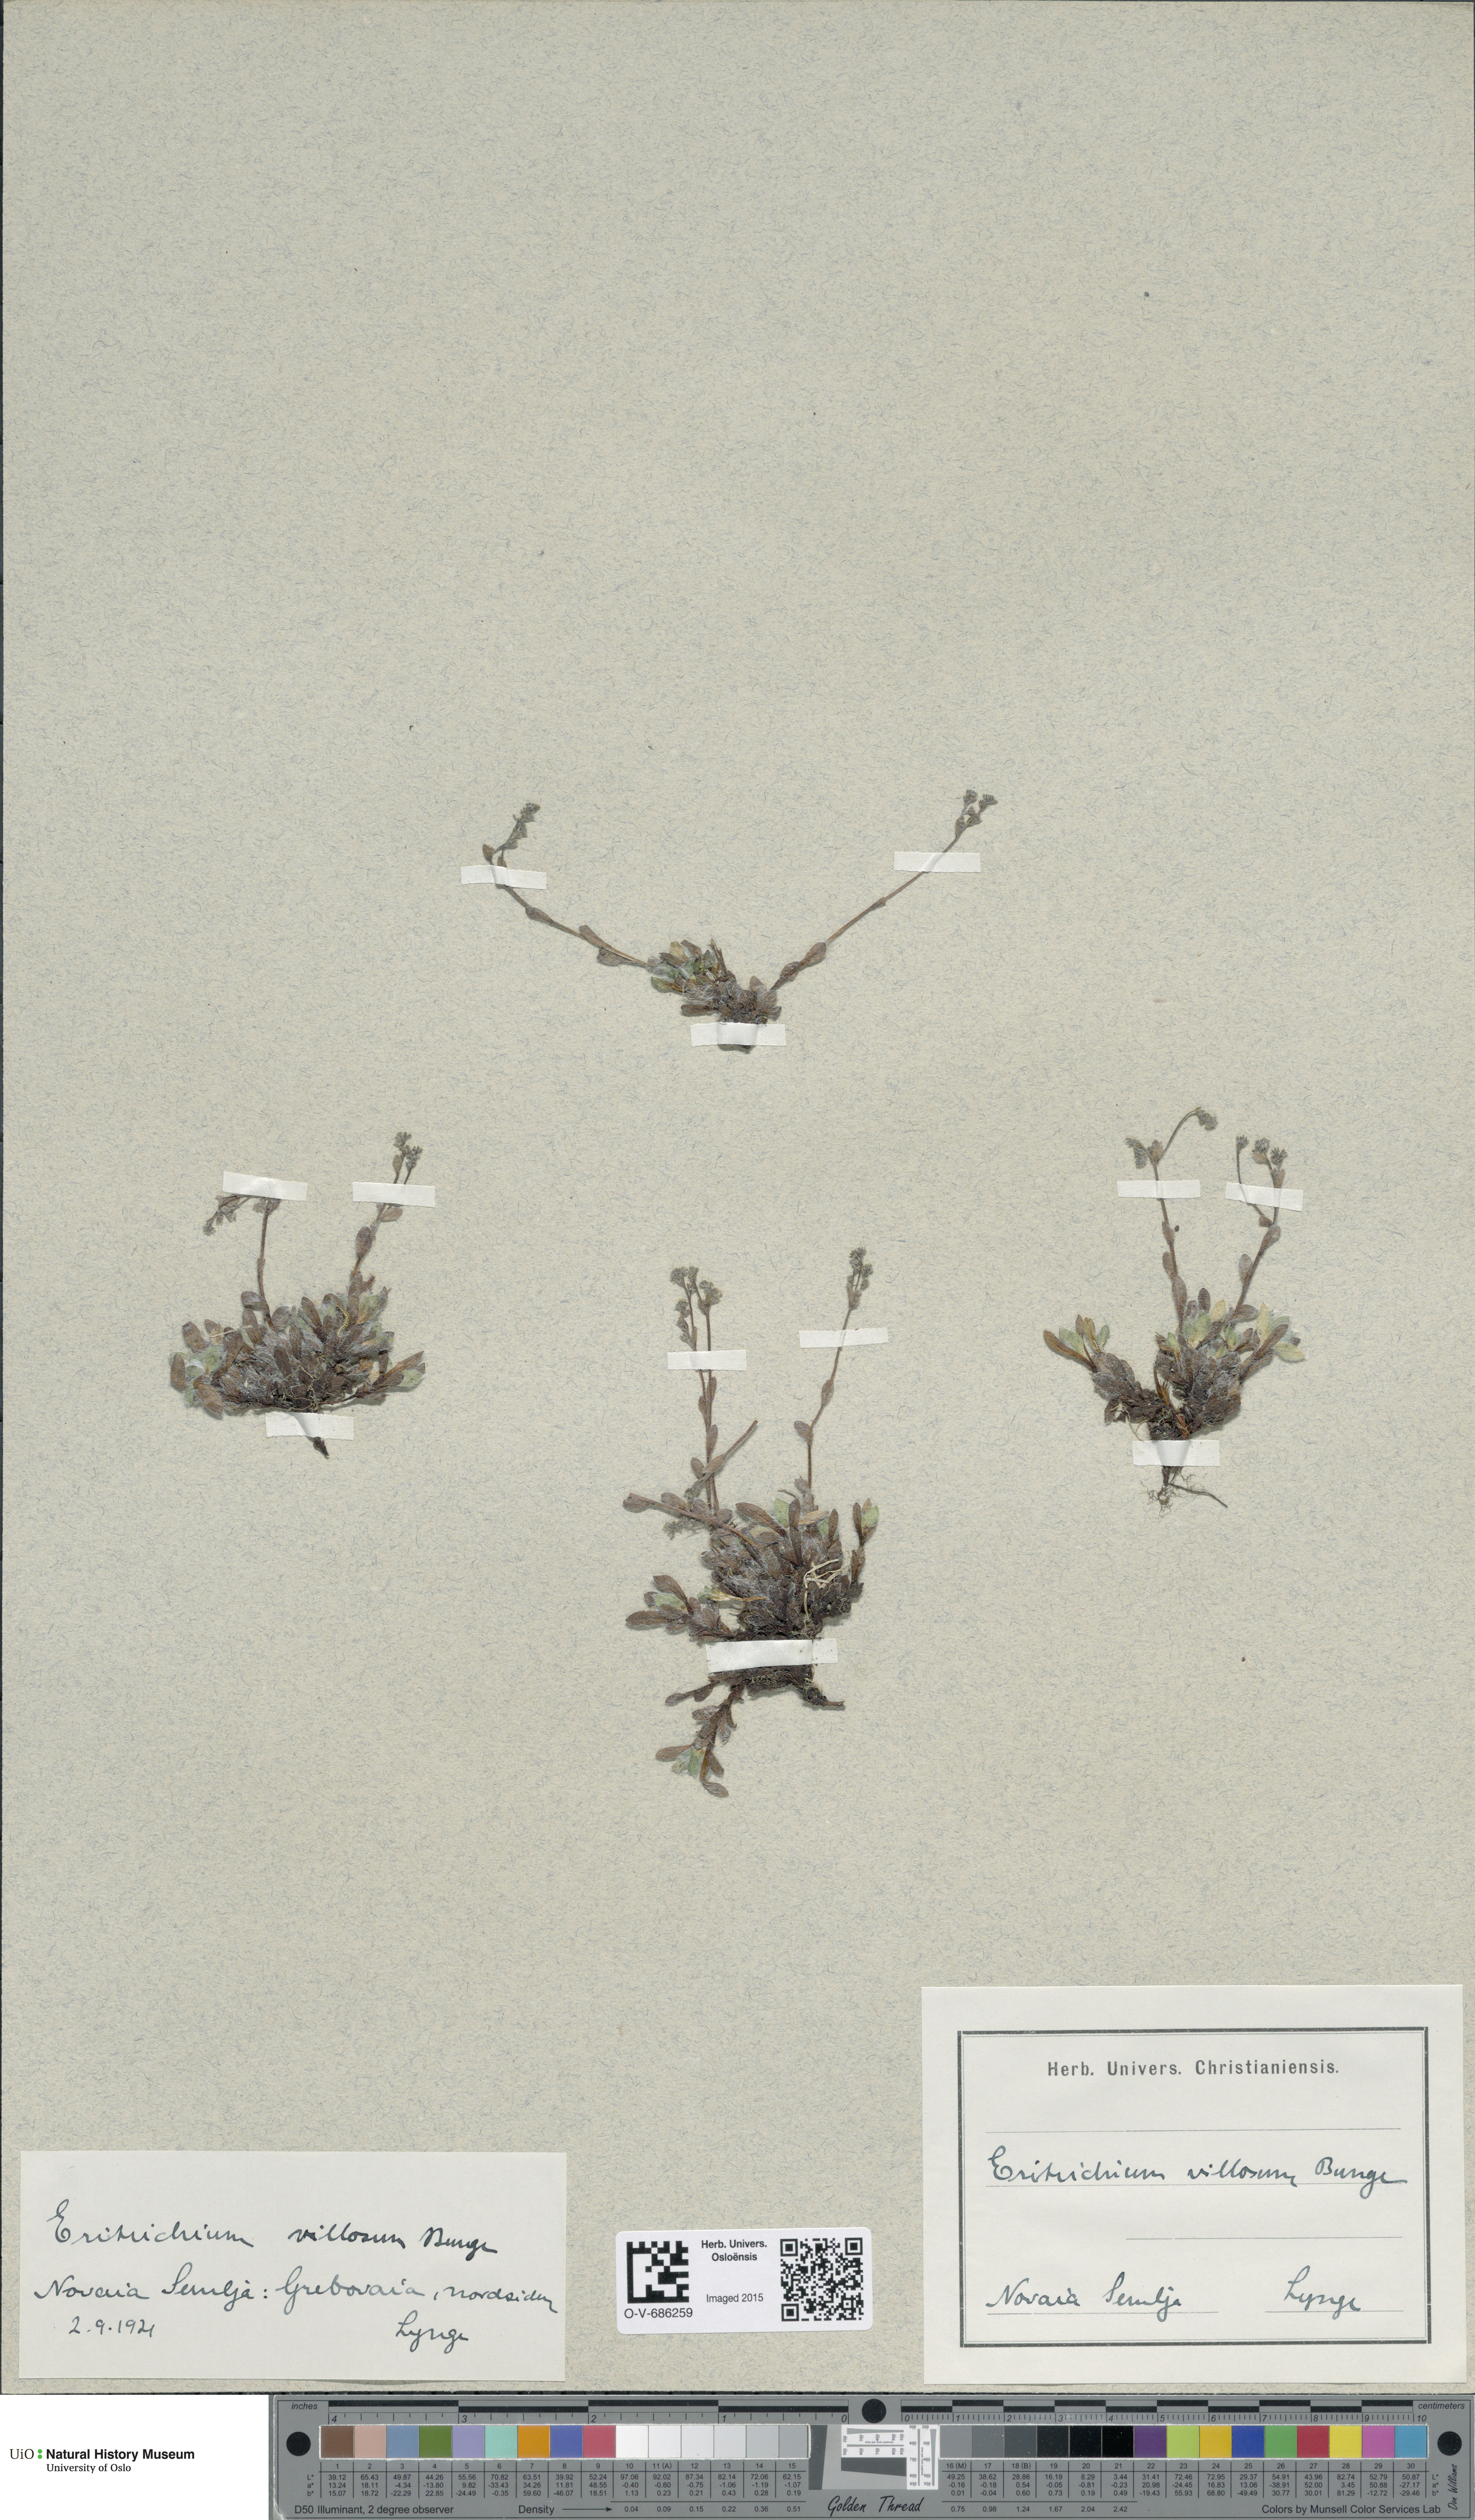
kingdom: Plantae
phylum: Tracheophyta
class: Magnoliopsida
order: Boraginales
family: Boraginaceae
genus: Eritrichium
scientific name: Eritrichium villosum
